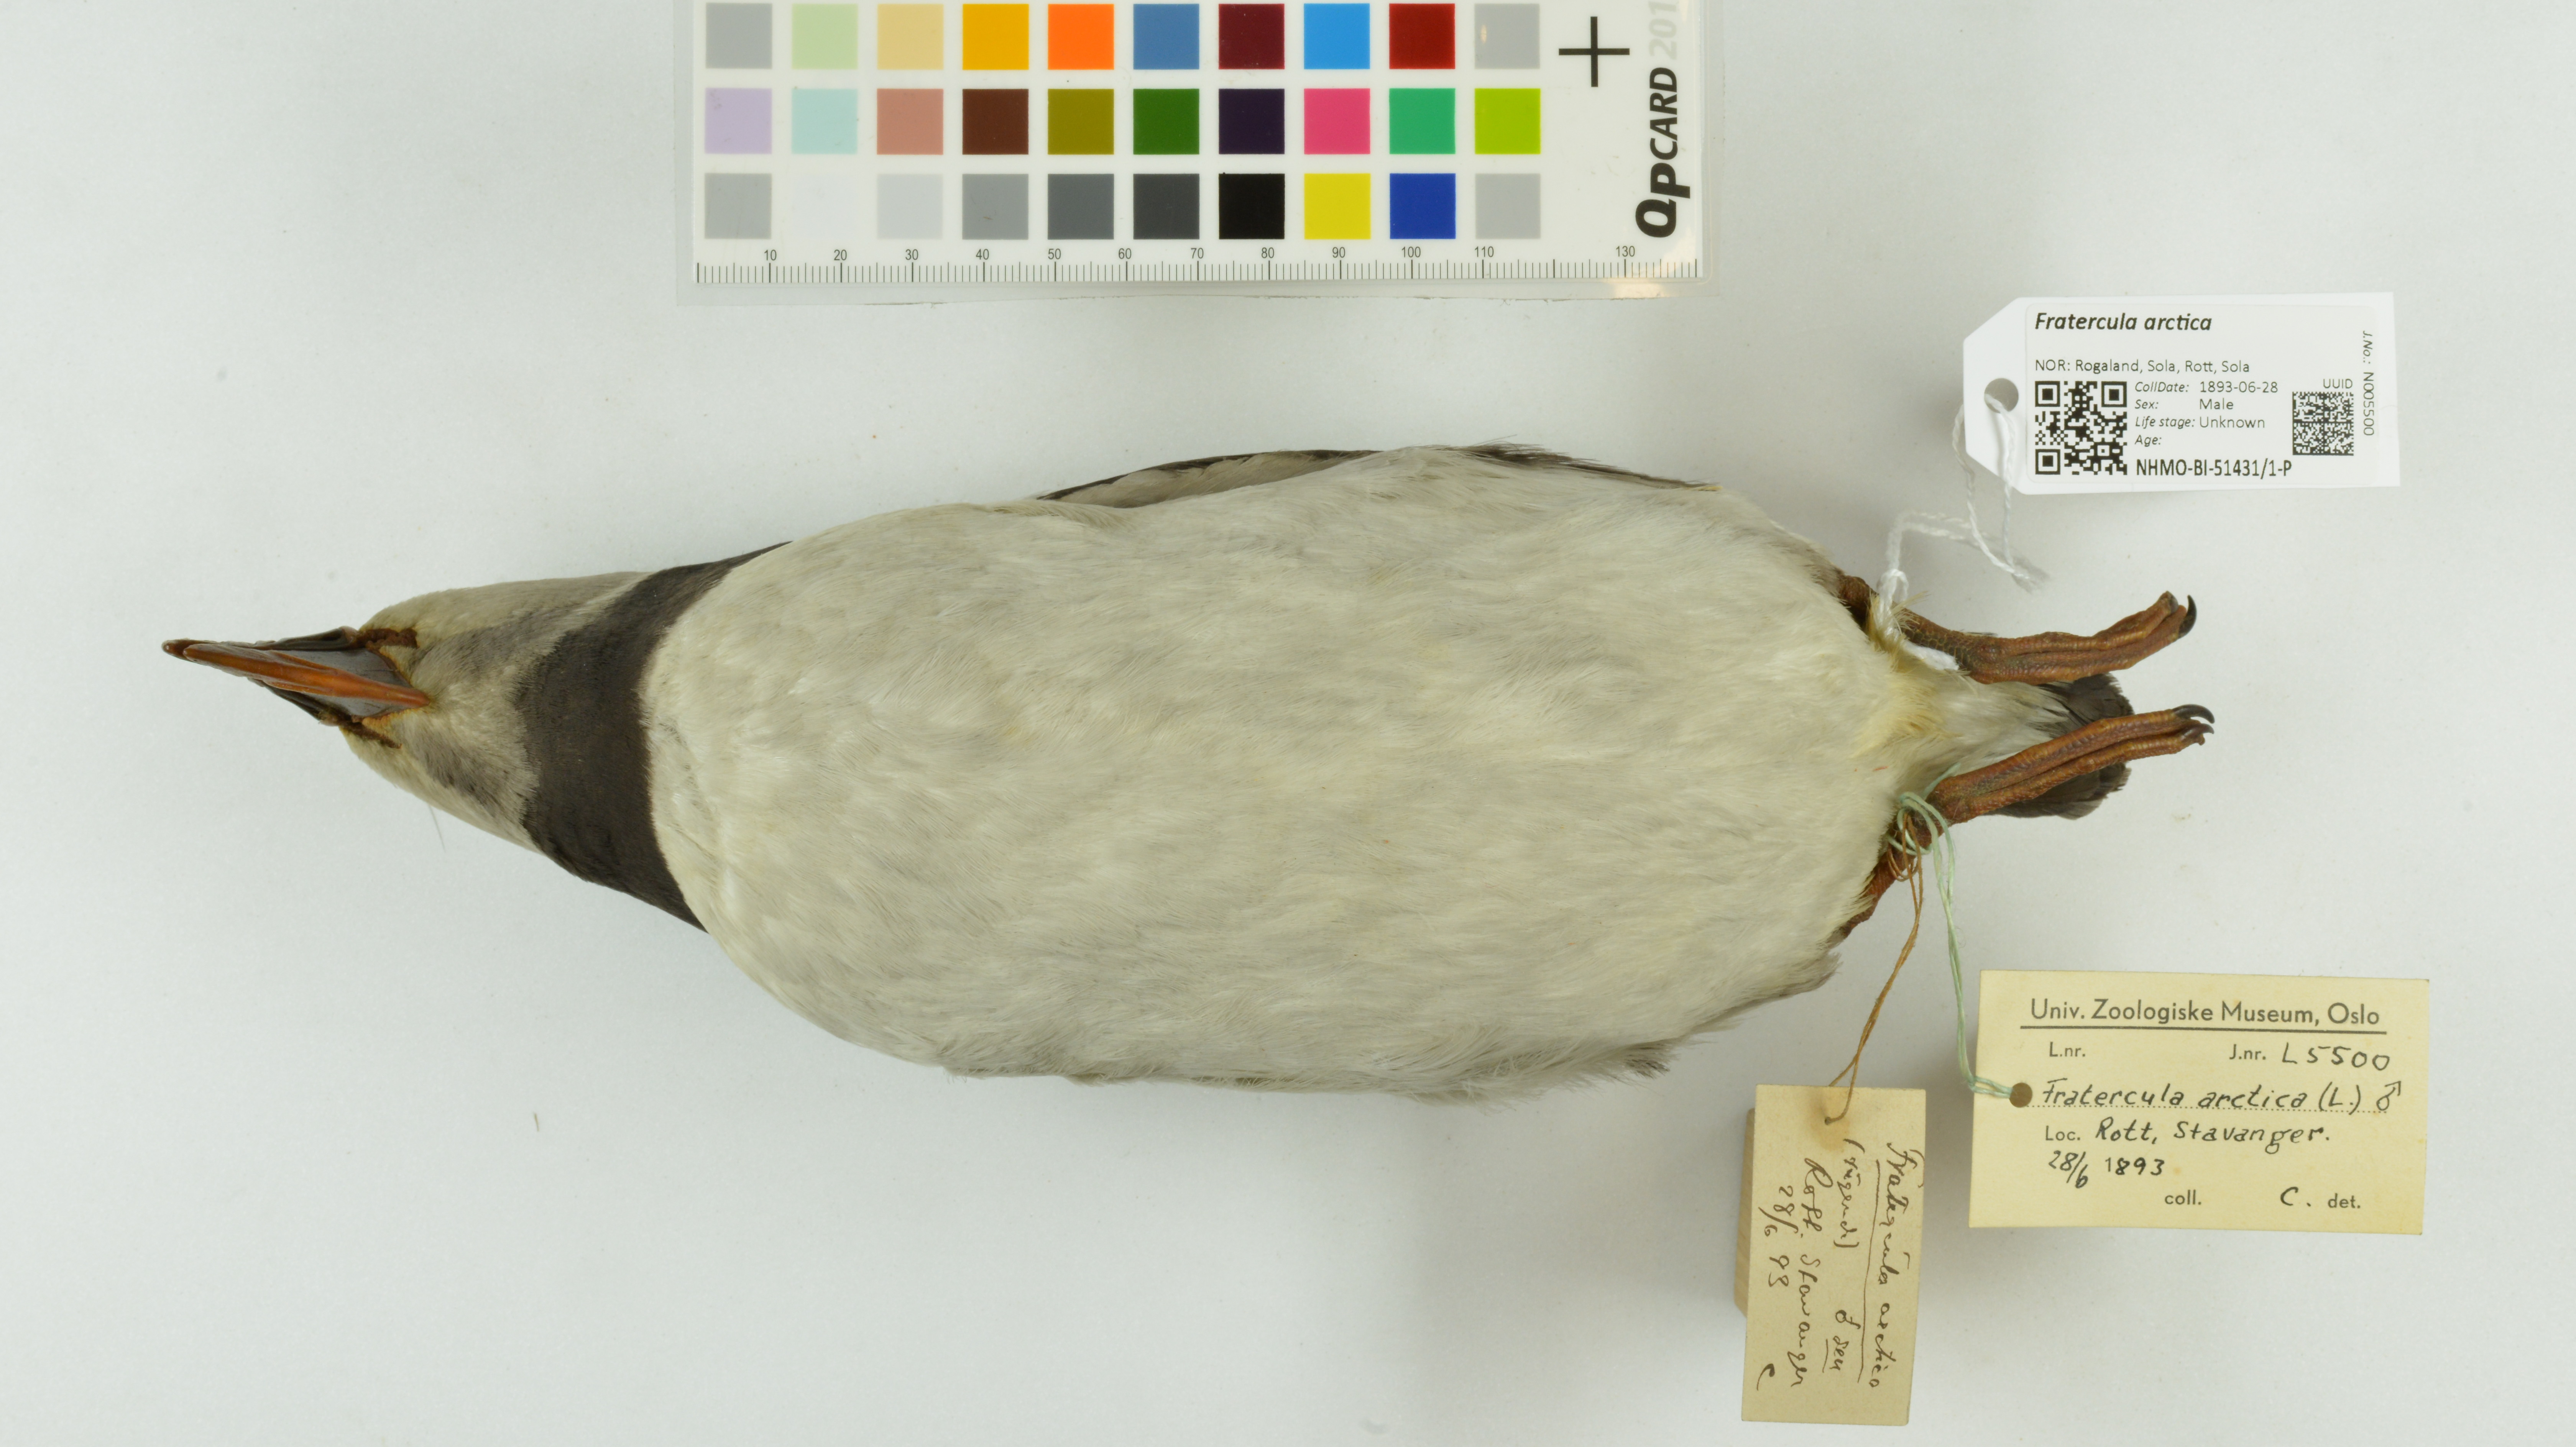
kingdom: Animalia
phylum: Chordata
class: Aves
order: Charadriiformes
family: Alcidae
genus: Fratercula
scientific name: Fratercula arctica
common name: Atlantic puffin
